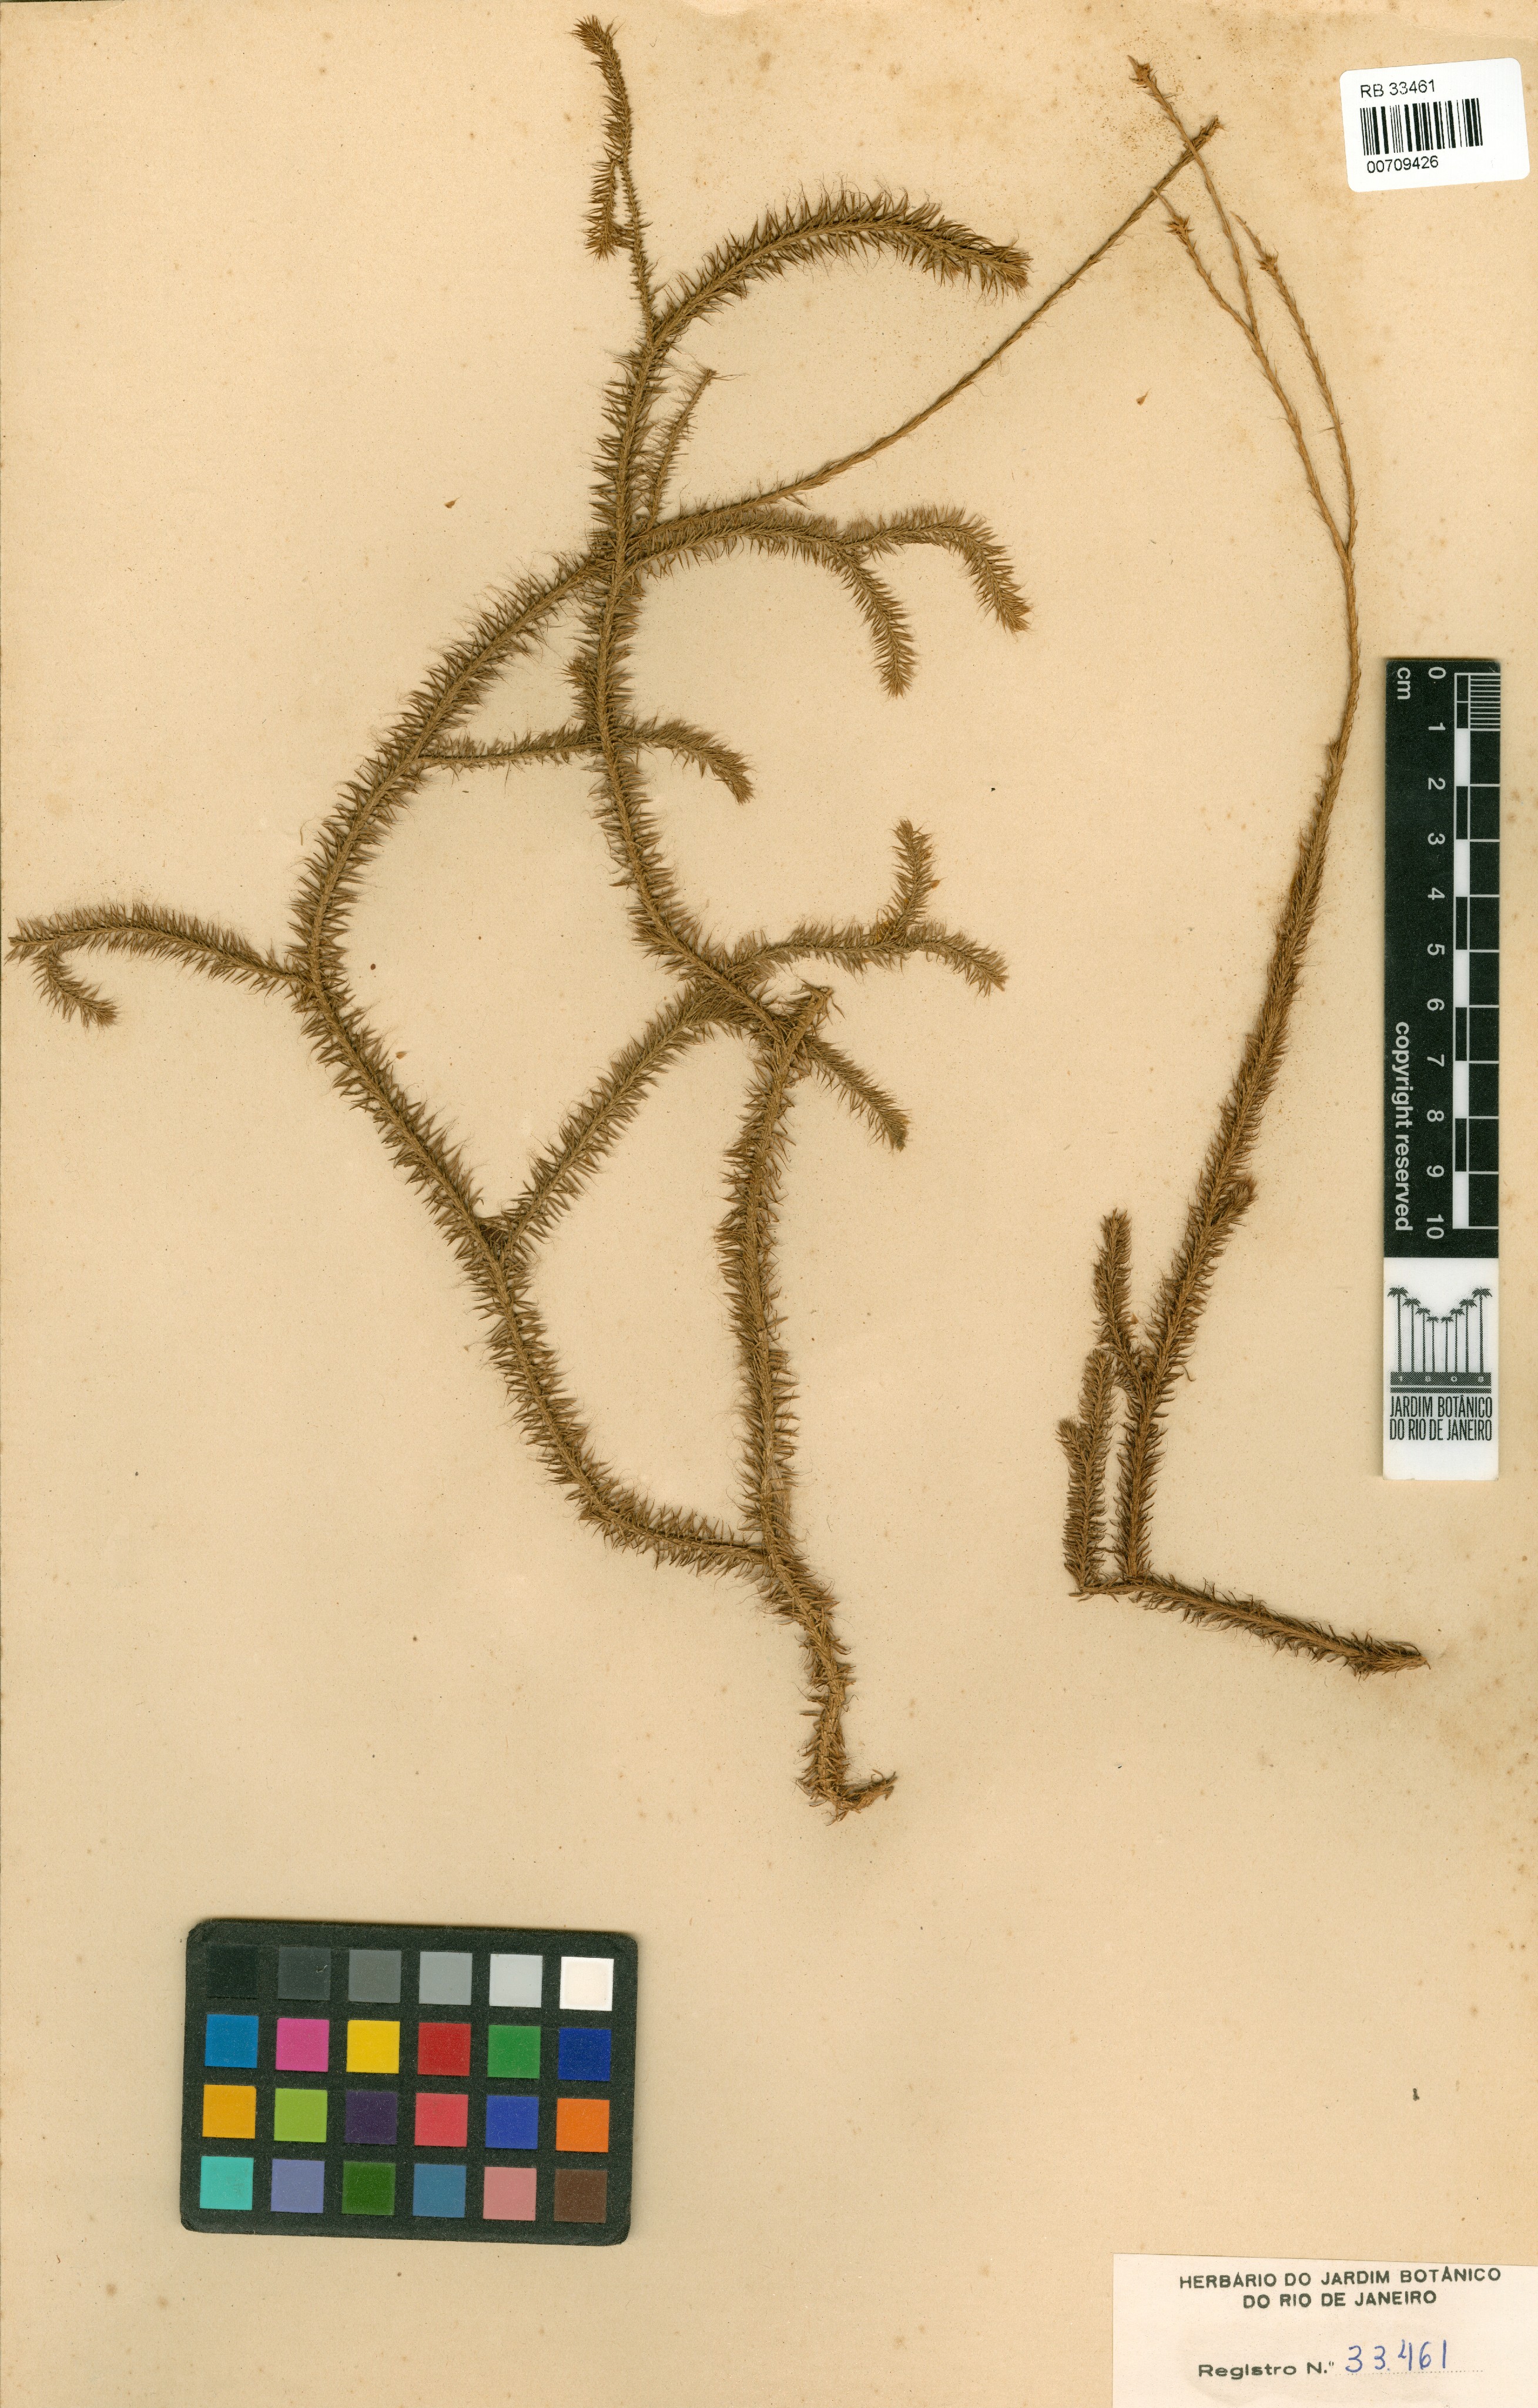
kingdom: Plantae
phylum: Tracheophyta
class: Lycopodiopsida
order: Lycopodiales
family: Lycopodiaceae
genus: Lycopodium
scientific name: Lycopodium clavatum
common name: Stag's-horn clubmoss
